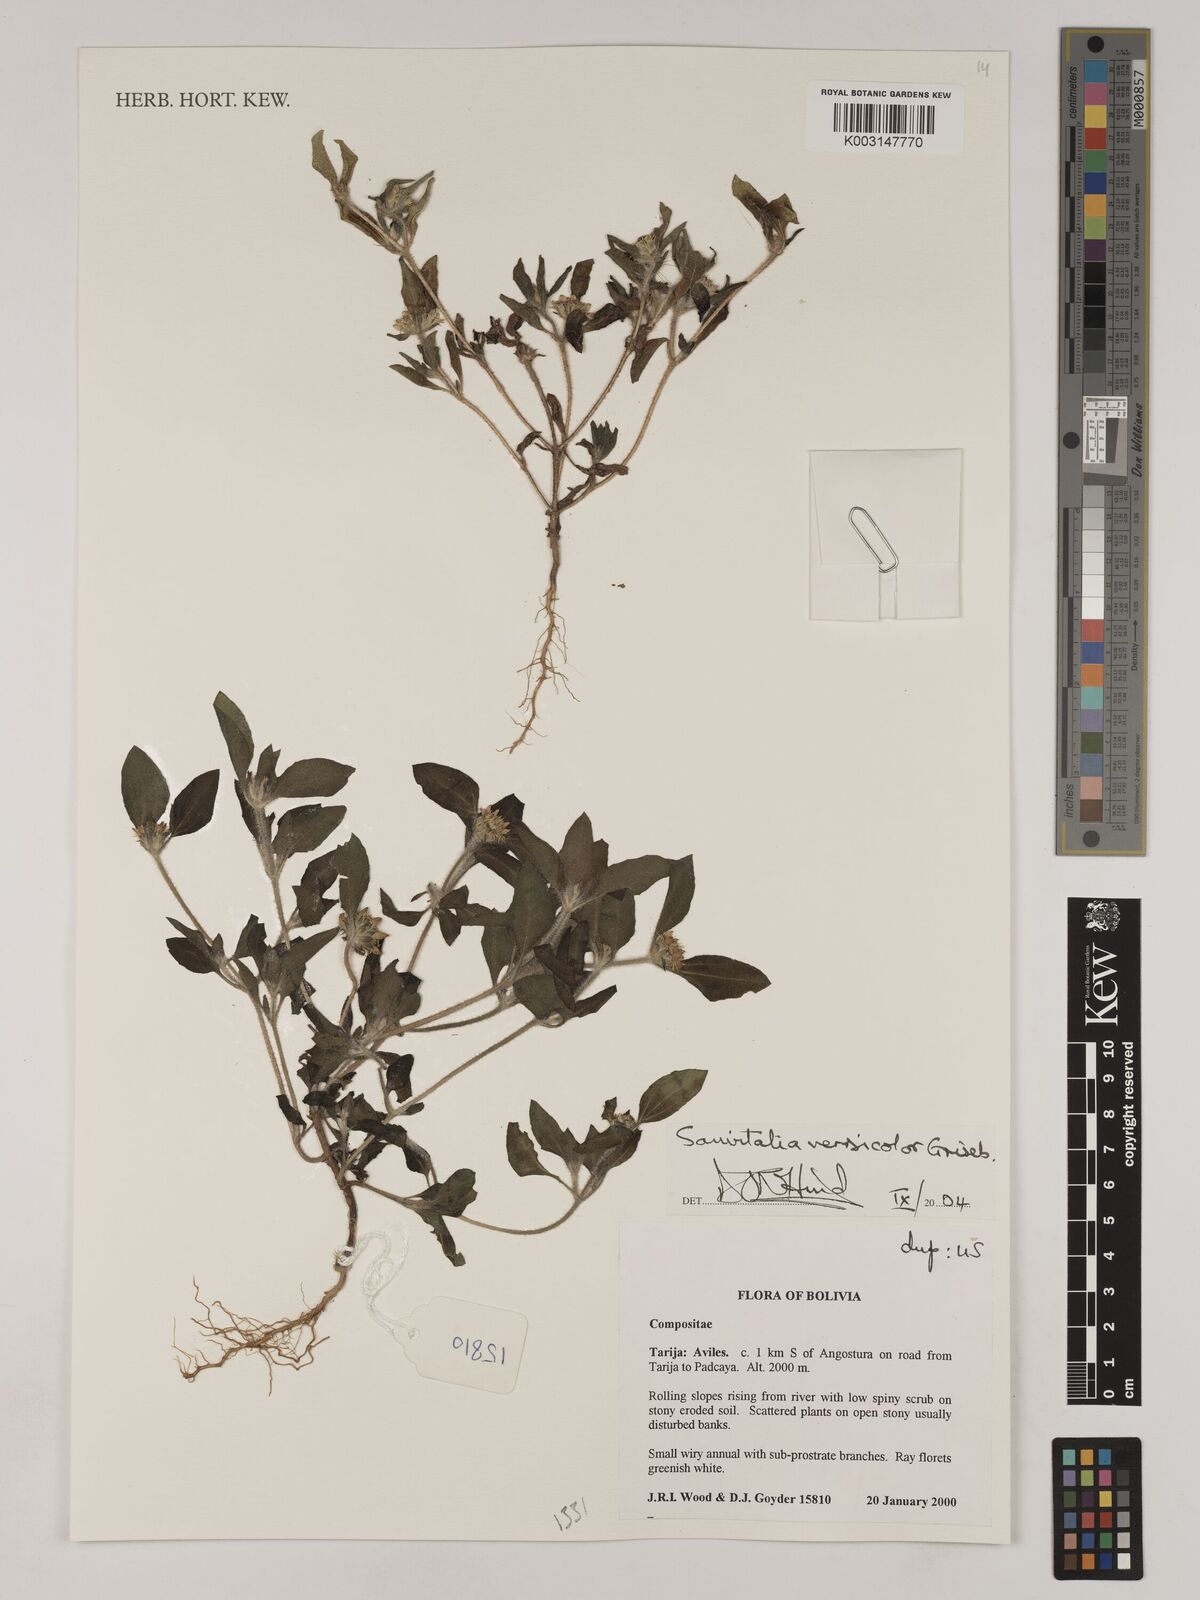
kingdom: Plantae
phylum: Tracheophyta
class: Magnoliopsida
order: Asterales
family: Asteraceae
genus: Sanvitalia
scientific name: Sanvitalia versicolor
